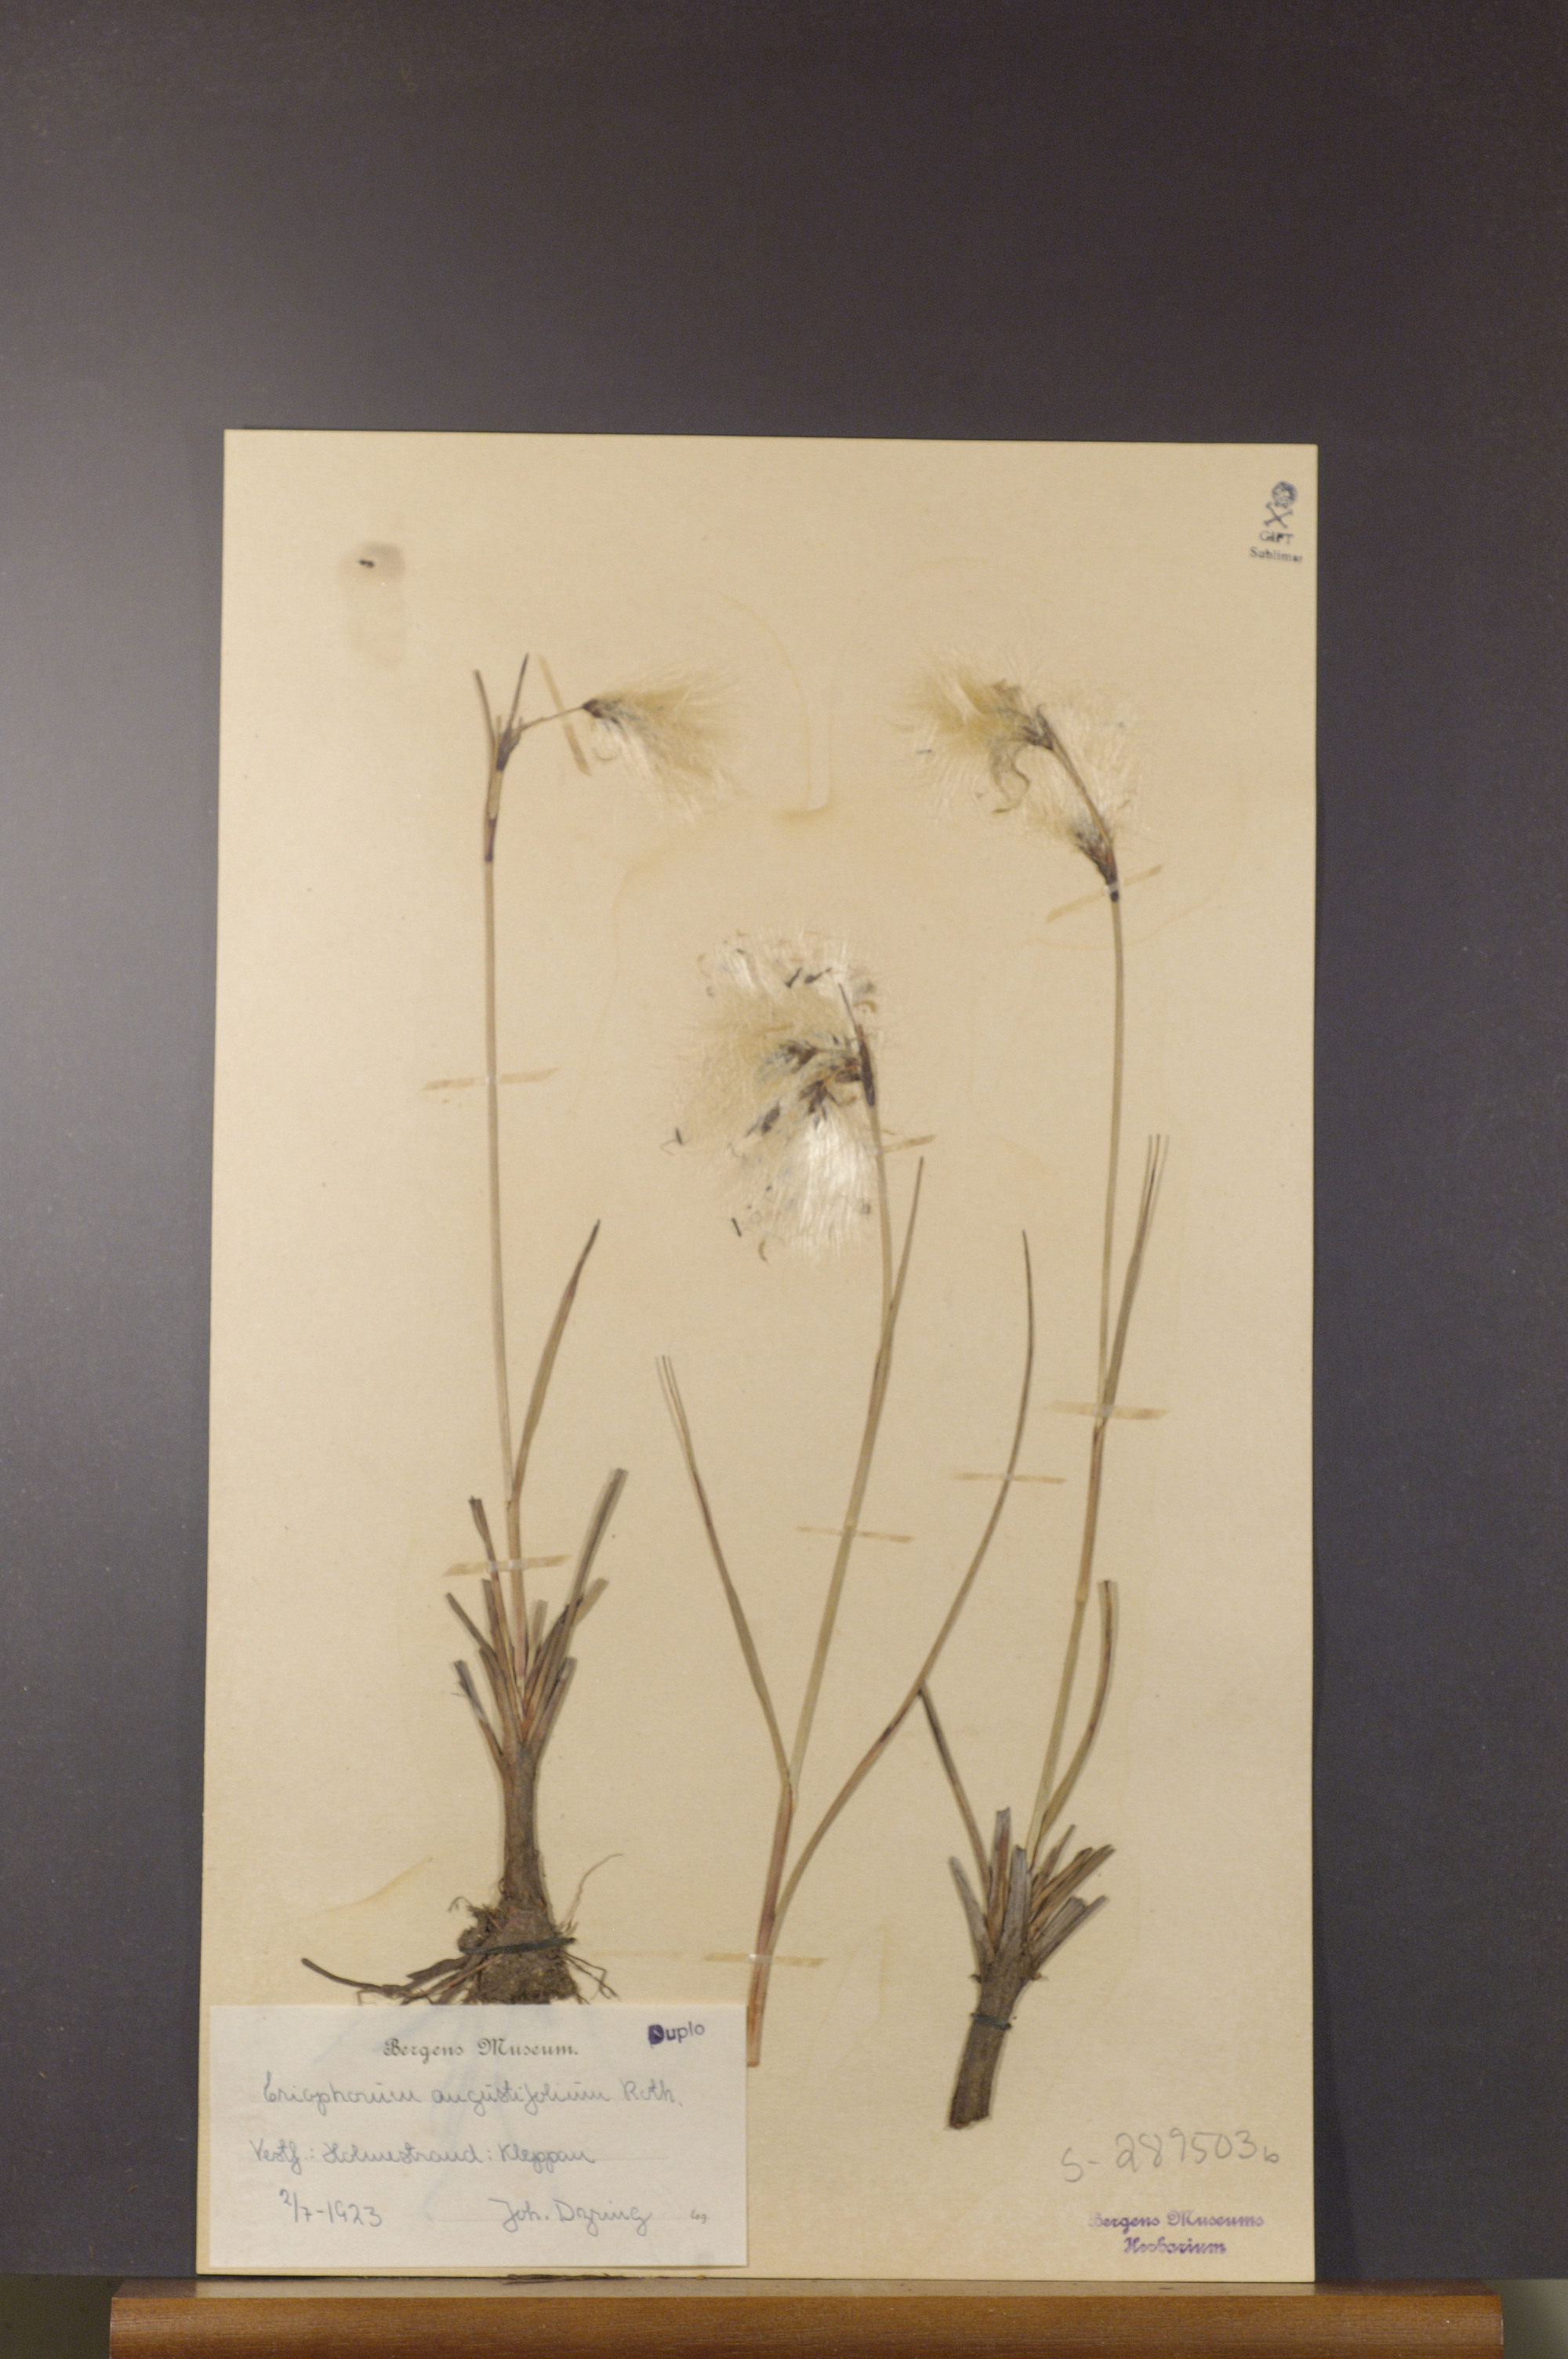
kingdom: Plantae
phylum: Tracheophyta
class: Liliopsida
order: Poales
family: Cyperaceae
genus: Eriophorum
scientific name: Eriophorum angustifolium
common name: Common cottongrass
